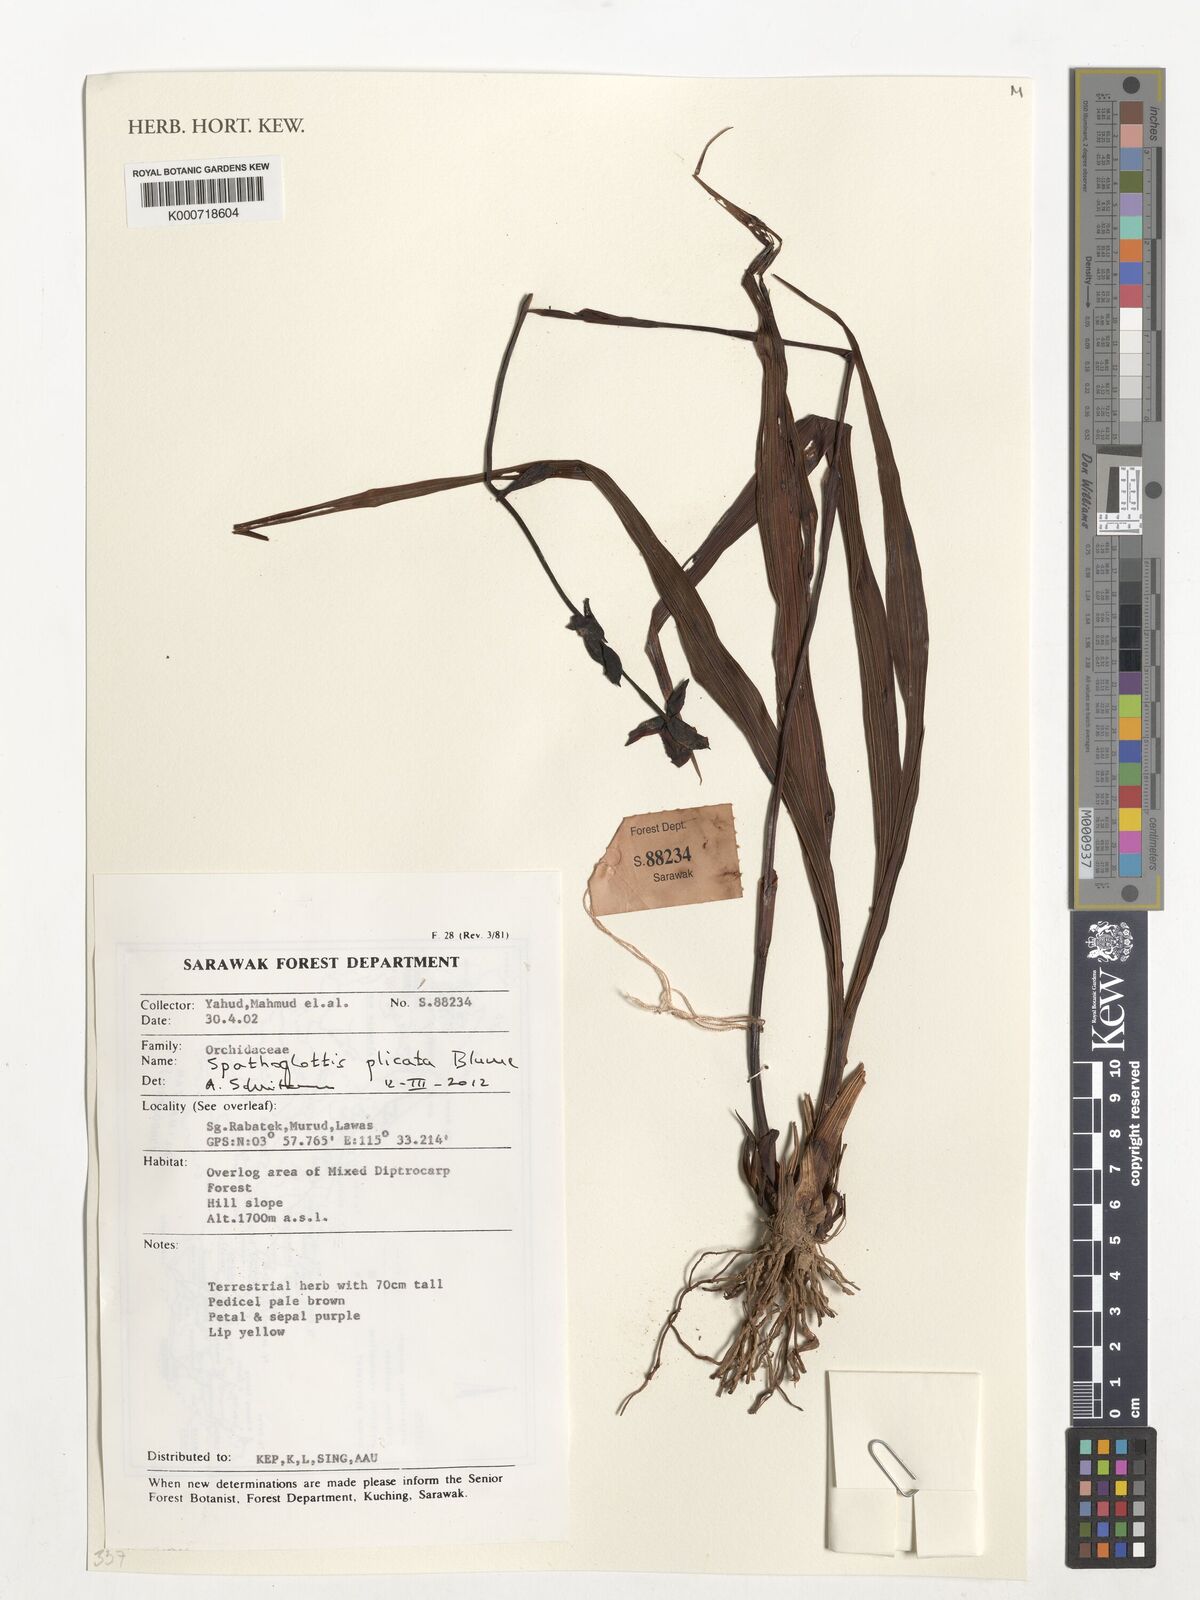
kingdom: Plantae
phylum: Tracheophyta
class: Liliopsida
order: Asparagales
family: Orchidaceae
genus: Spathoglottis
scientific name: Spathoglottis plicata
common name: Philippine ground orchid
